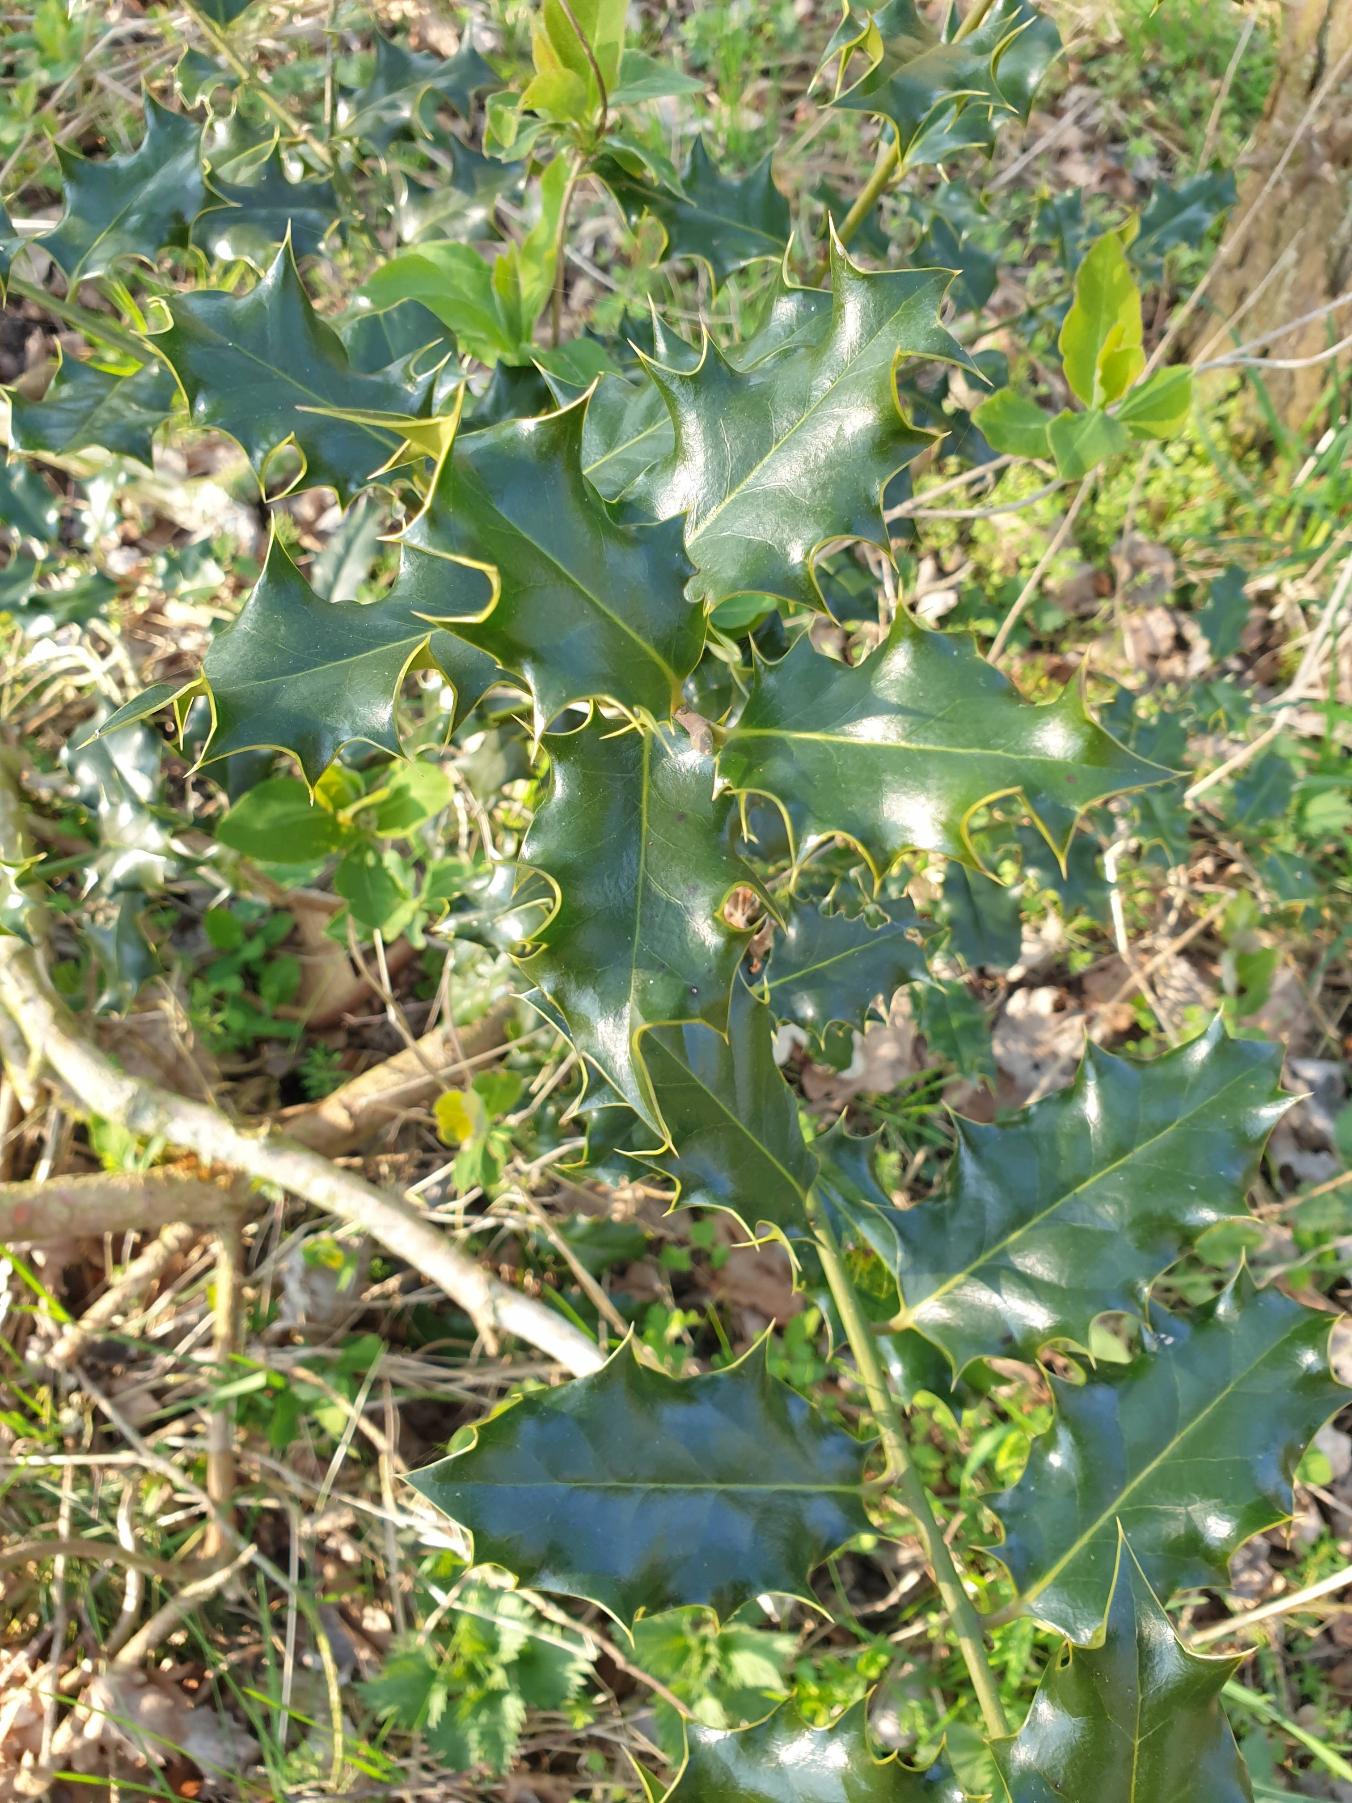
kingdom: Plantae
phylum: Tracheophyta
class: Magnoliopsida
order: Aquifoliales
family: Aquifoliaceae
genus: Ilex
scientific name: Ilex aquifolium
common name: Kristtorn
